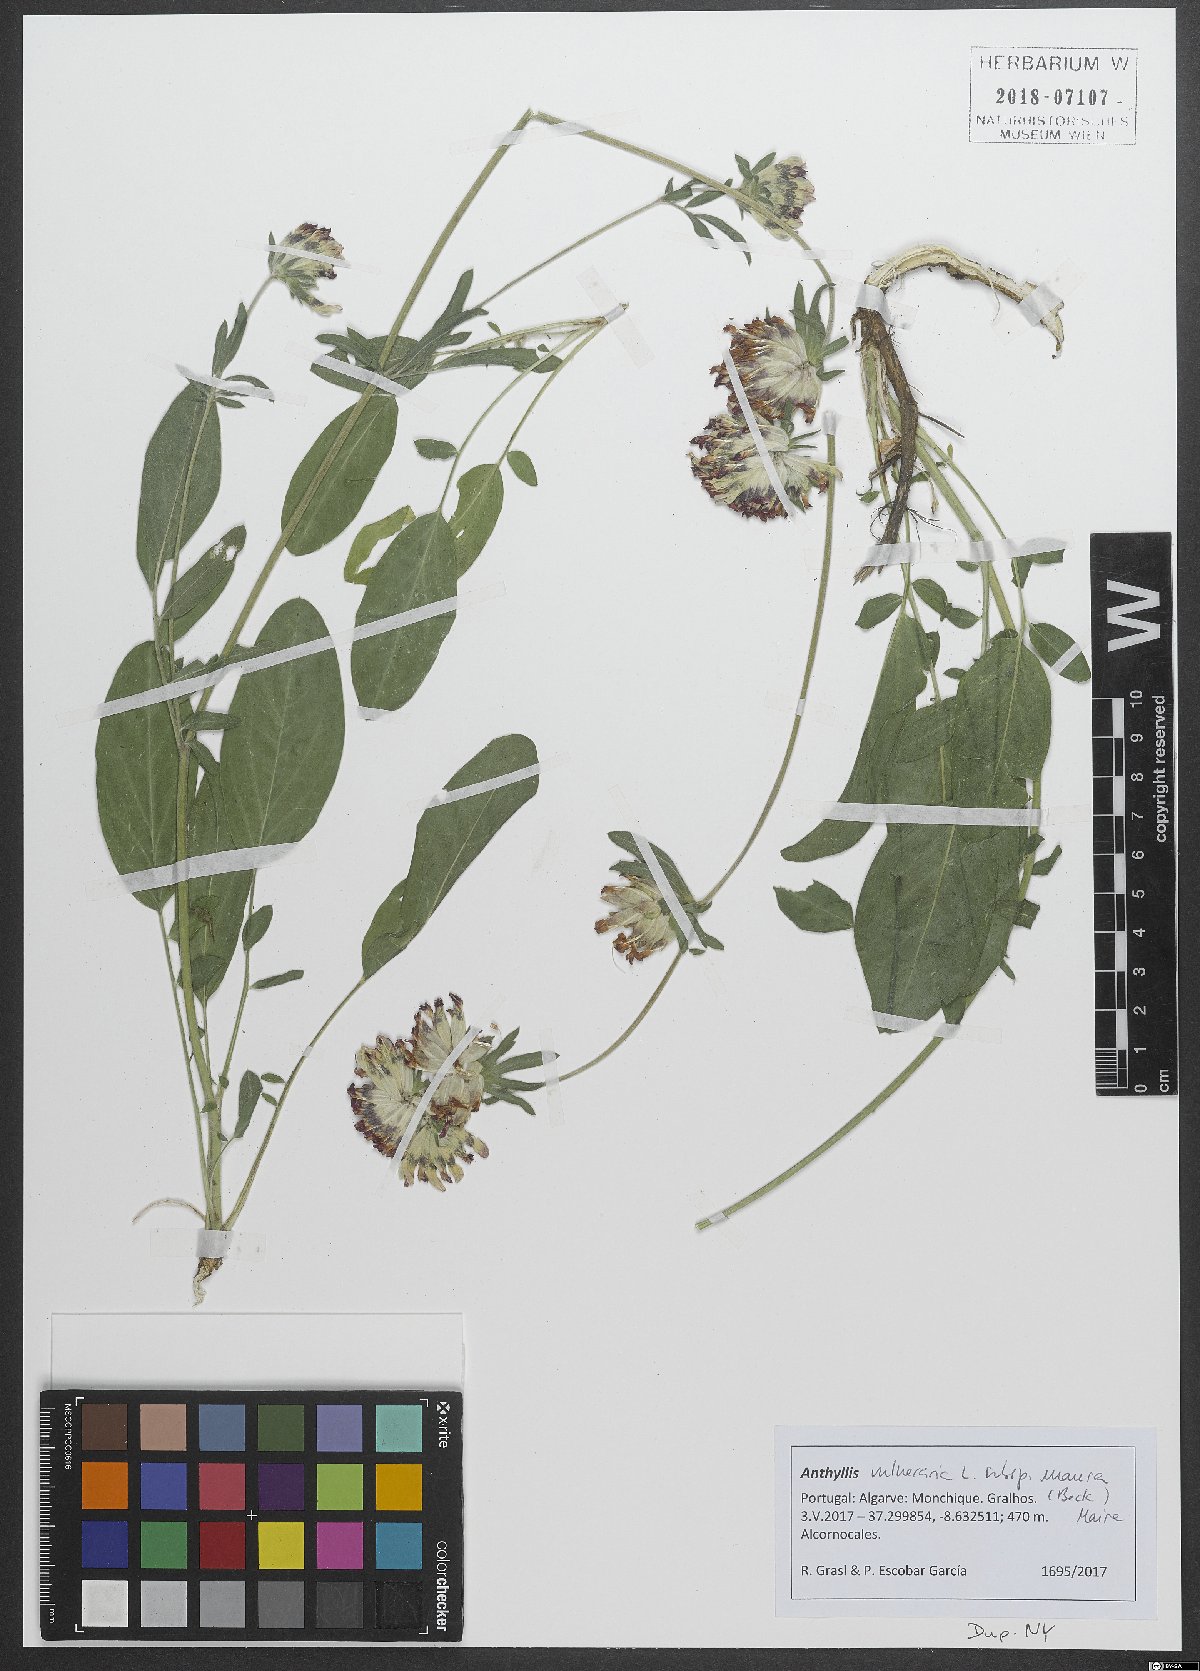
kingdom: Plantae
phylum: Tracheophyta
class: Magnoliopsida
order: Fabales
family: Fabaceae
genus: Anthyllis
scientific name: Anthyllis vulneraria
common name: Kidney vetch
